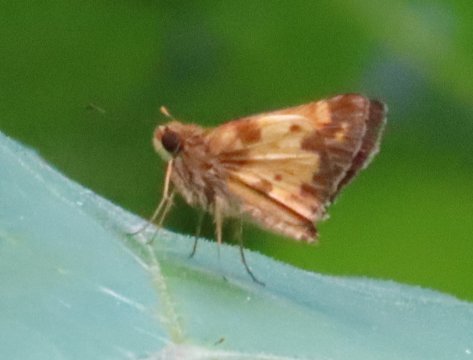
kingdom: Animalia
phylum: Arthropoda
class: Insecta
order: Lepidoptera
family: Hesperiidae
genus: Lon
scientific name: Lon zabulon
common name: Zabulon Skipper
